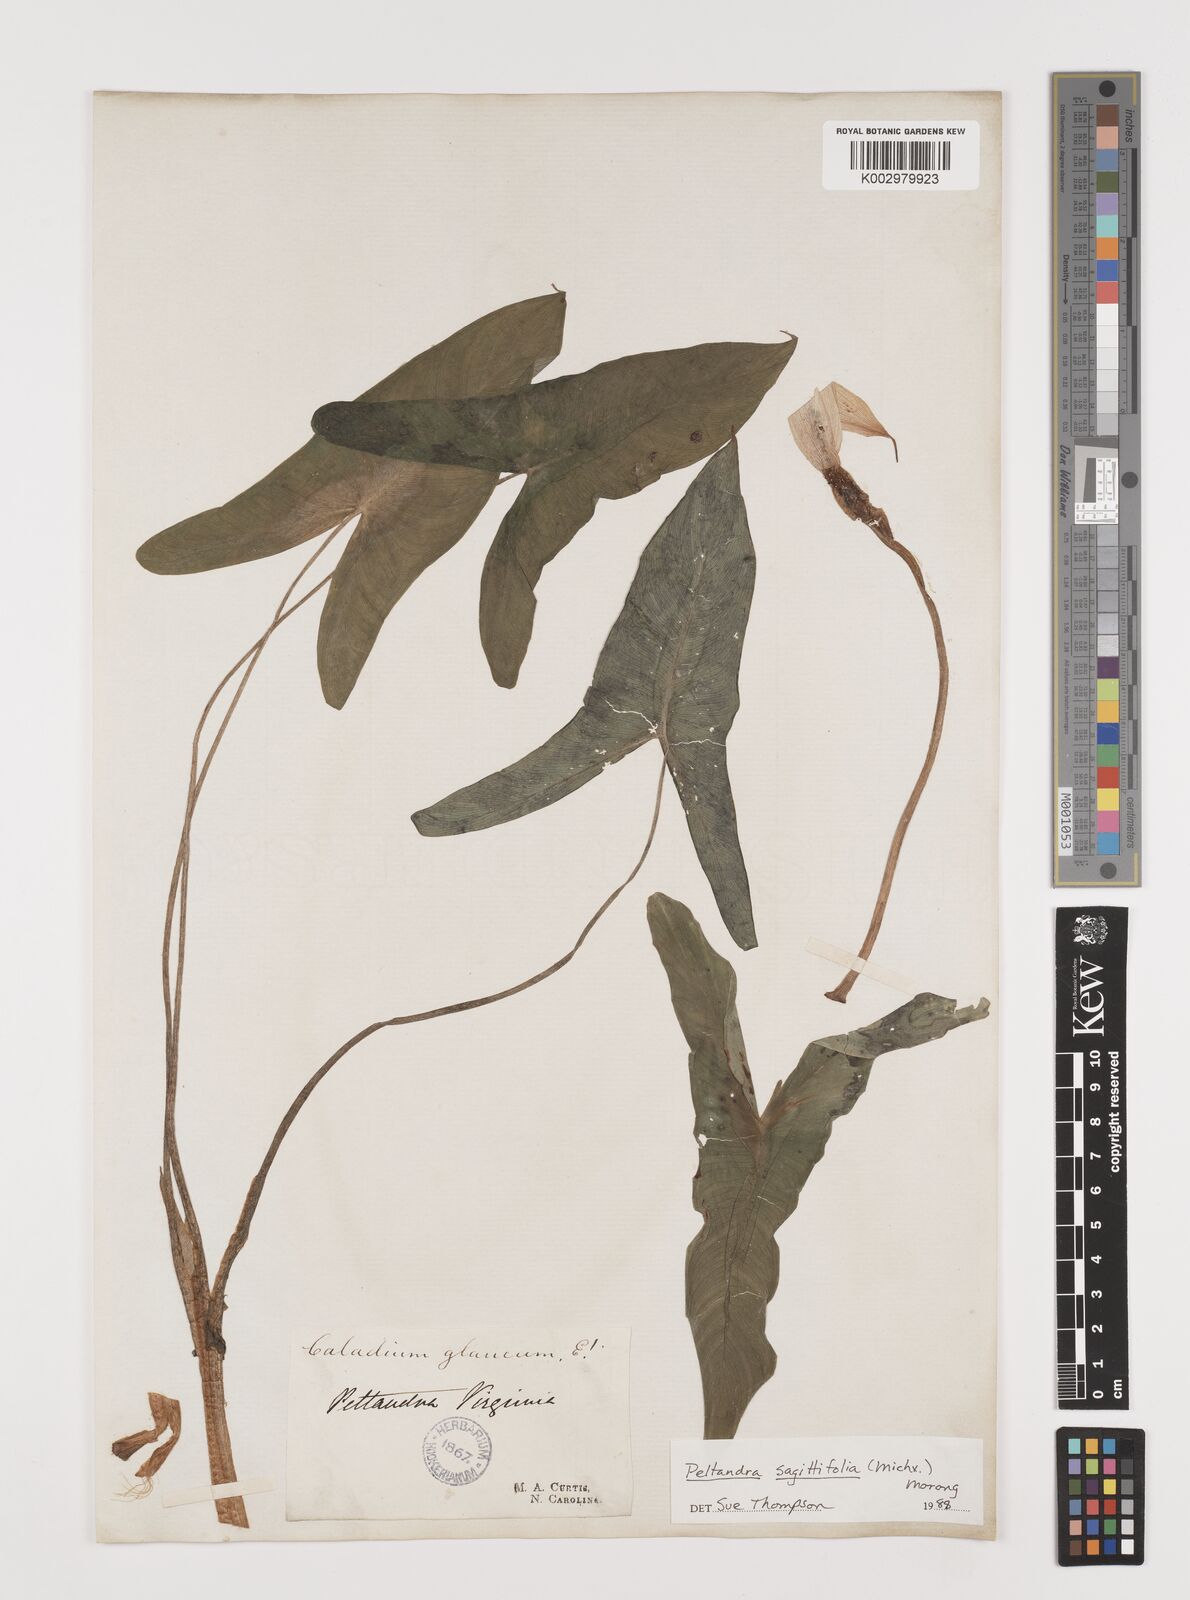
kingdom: Plantae
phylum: Tracheophyta
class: Liliopsida
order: Alismatales
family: Araceae
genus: Peltandra
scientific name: Peltandra sagittifolia
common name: White arrow arum
